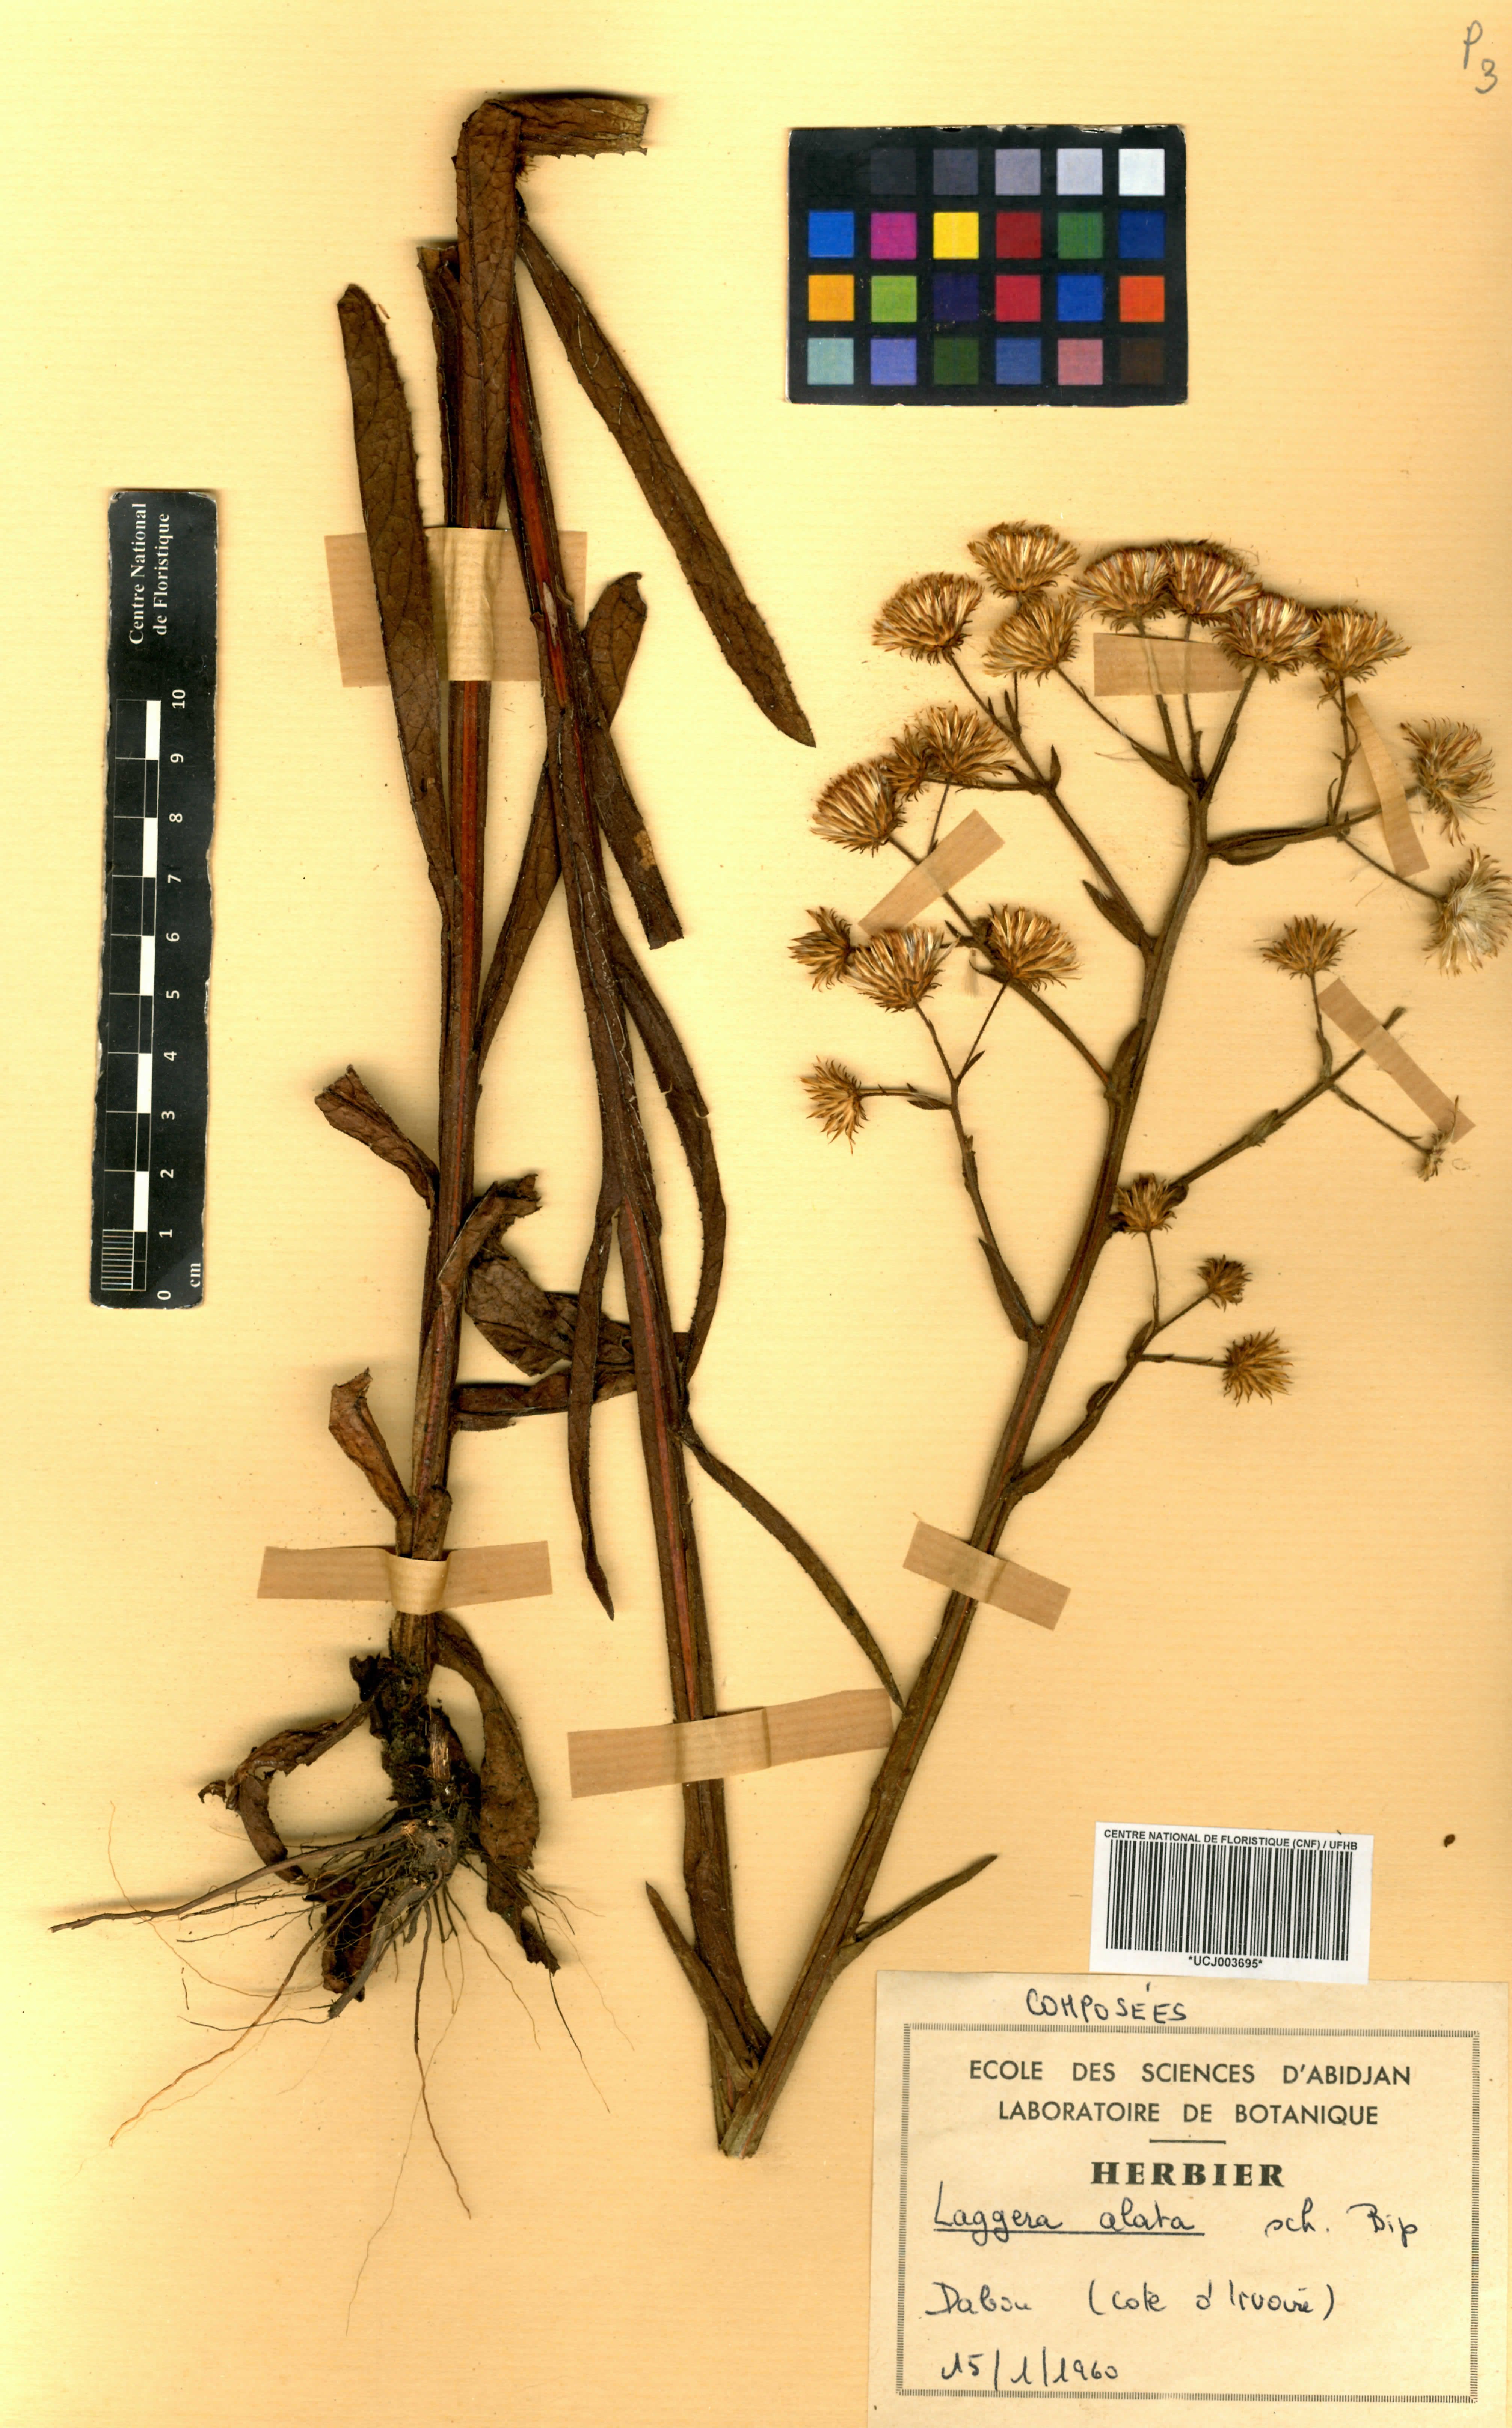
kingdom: Plantae
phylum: Tracheophyta
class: Magnoliopsida
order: Asterales
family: Asteraceae
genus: Laggera
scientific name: Laggera alata
